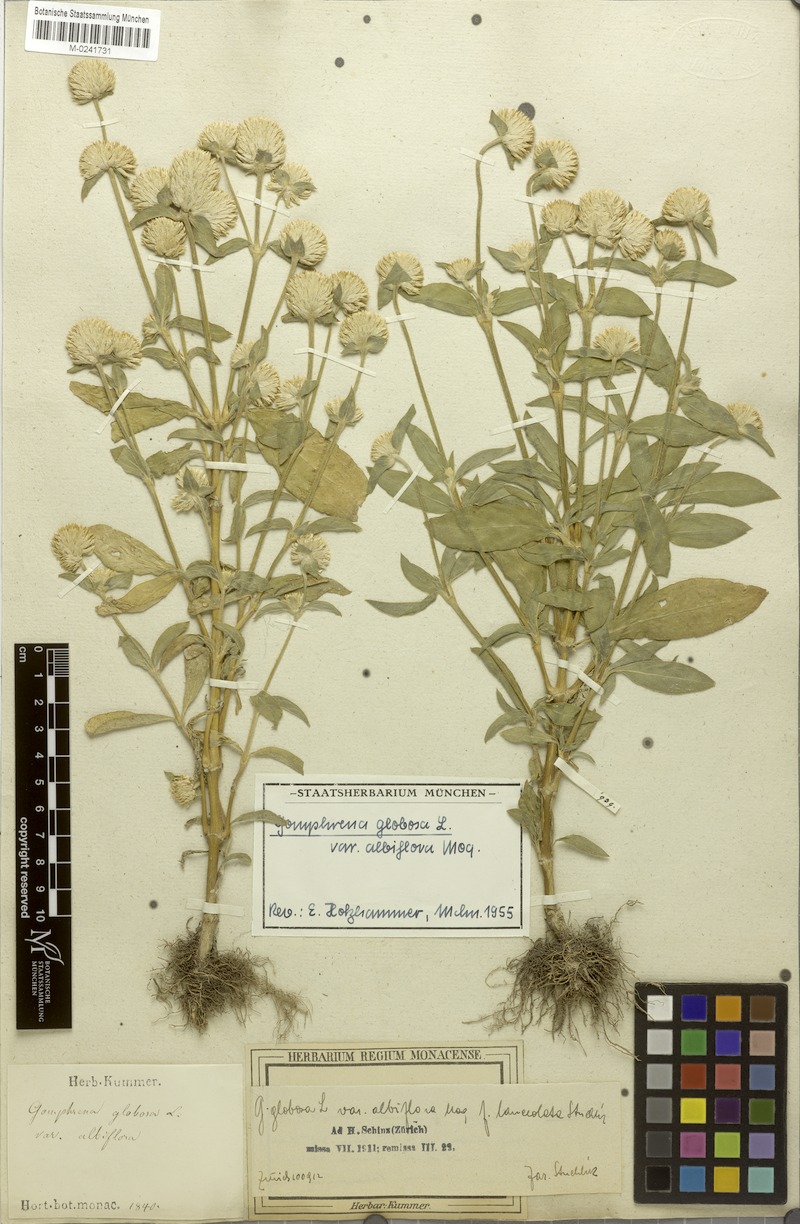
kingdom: Plantae
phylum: Tracheophyta
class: Magnoliopsida
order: Caryophyllales
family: Amaranthaceae
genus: Gomphrena
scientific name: Gomphrena filaginoides
